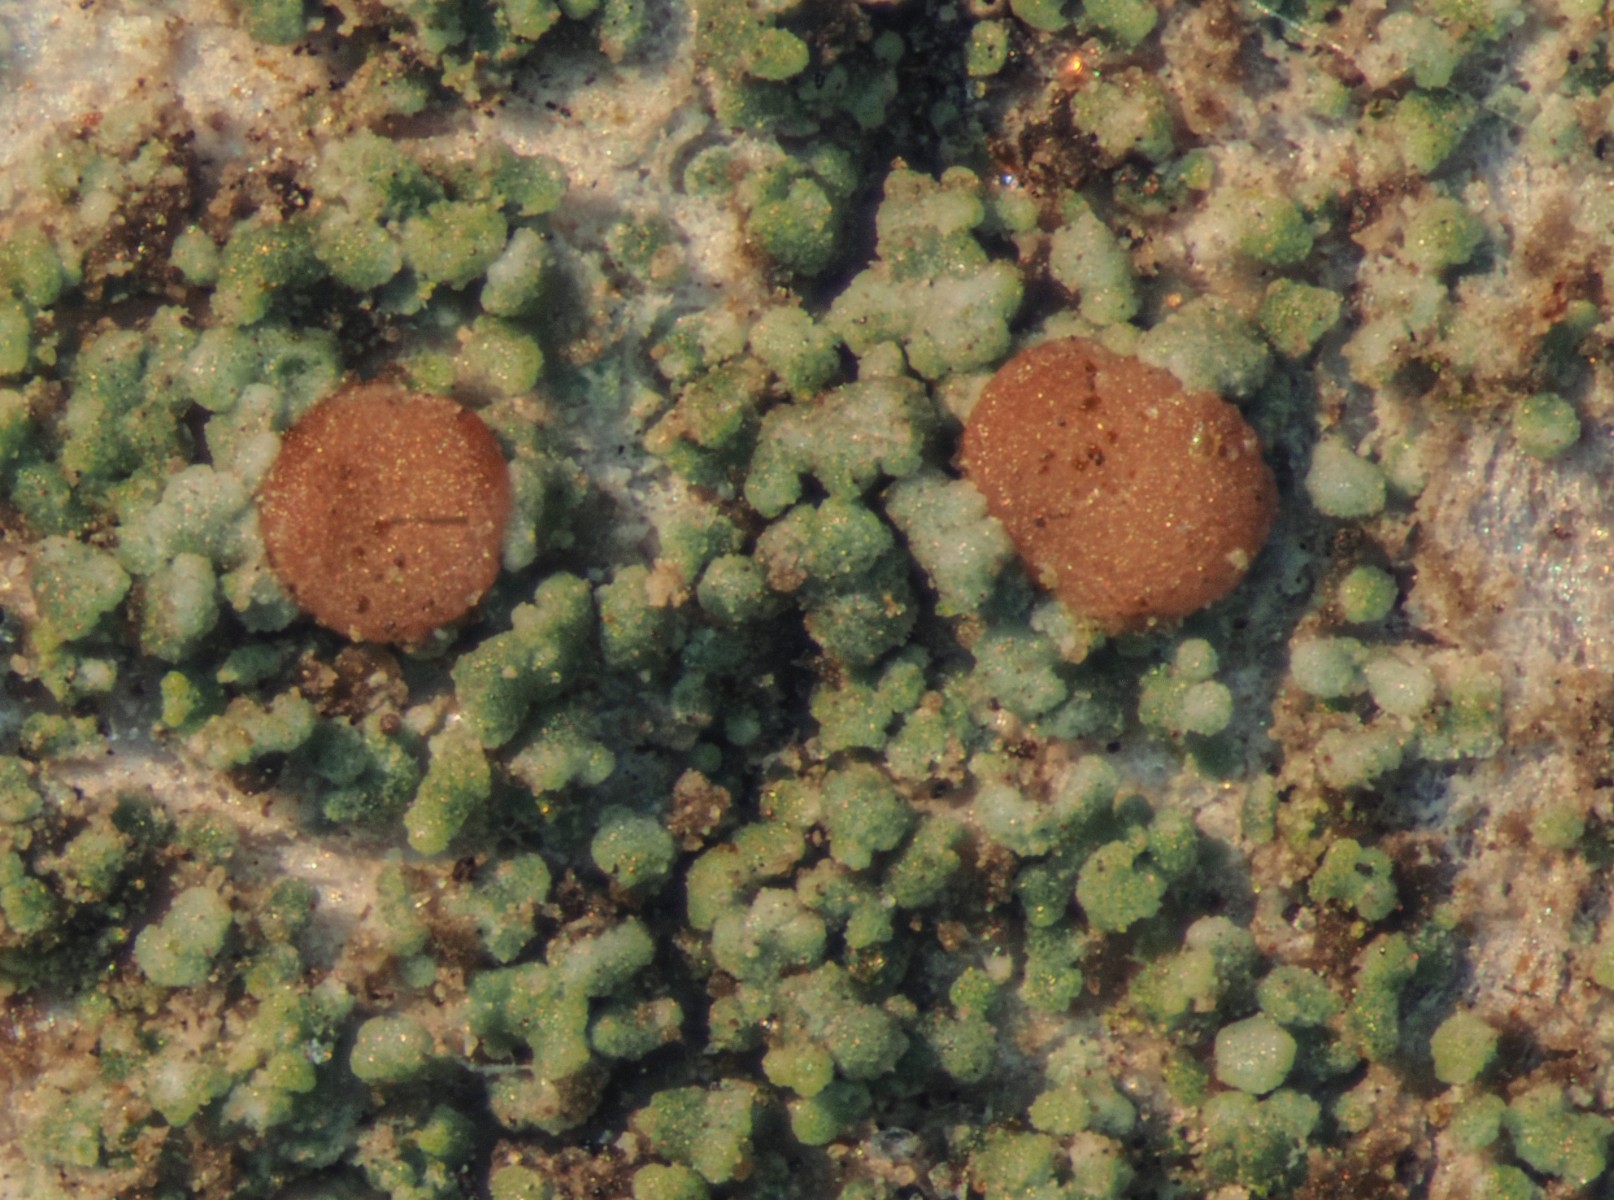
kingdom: Fungi
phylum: Ascomycota
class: Lecanoromycetes
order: Lecanorales
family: Ramalinaceae
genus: Bacidia
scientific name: Bacidia rubella
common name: rødbrun tensporelav
